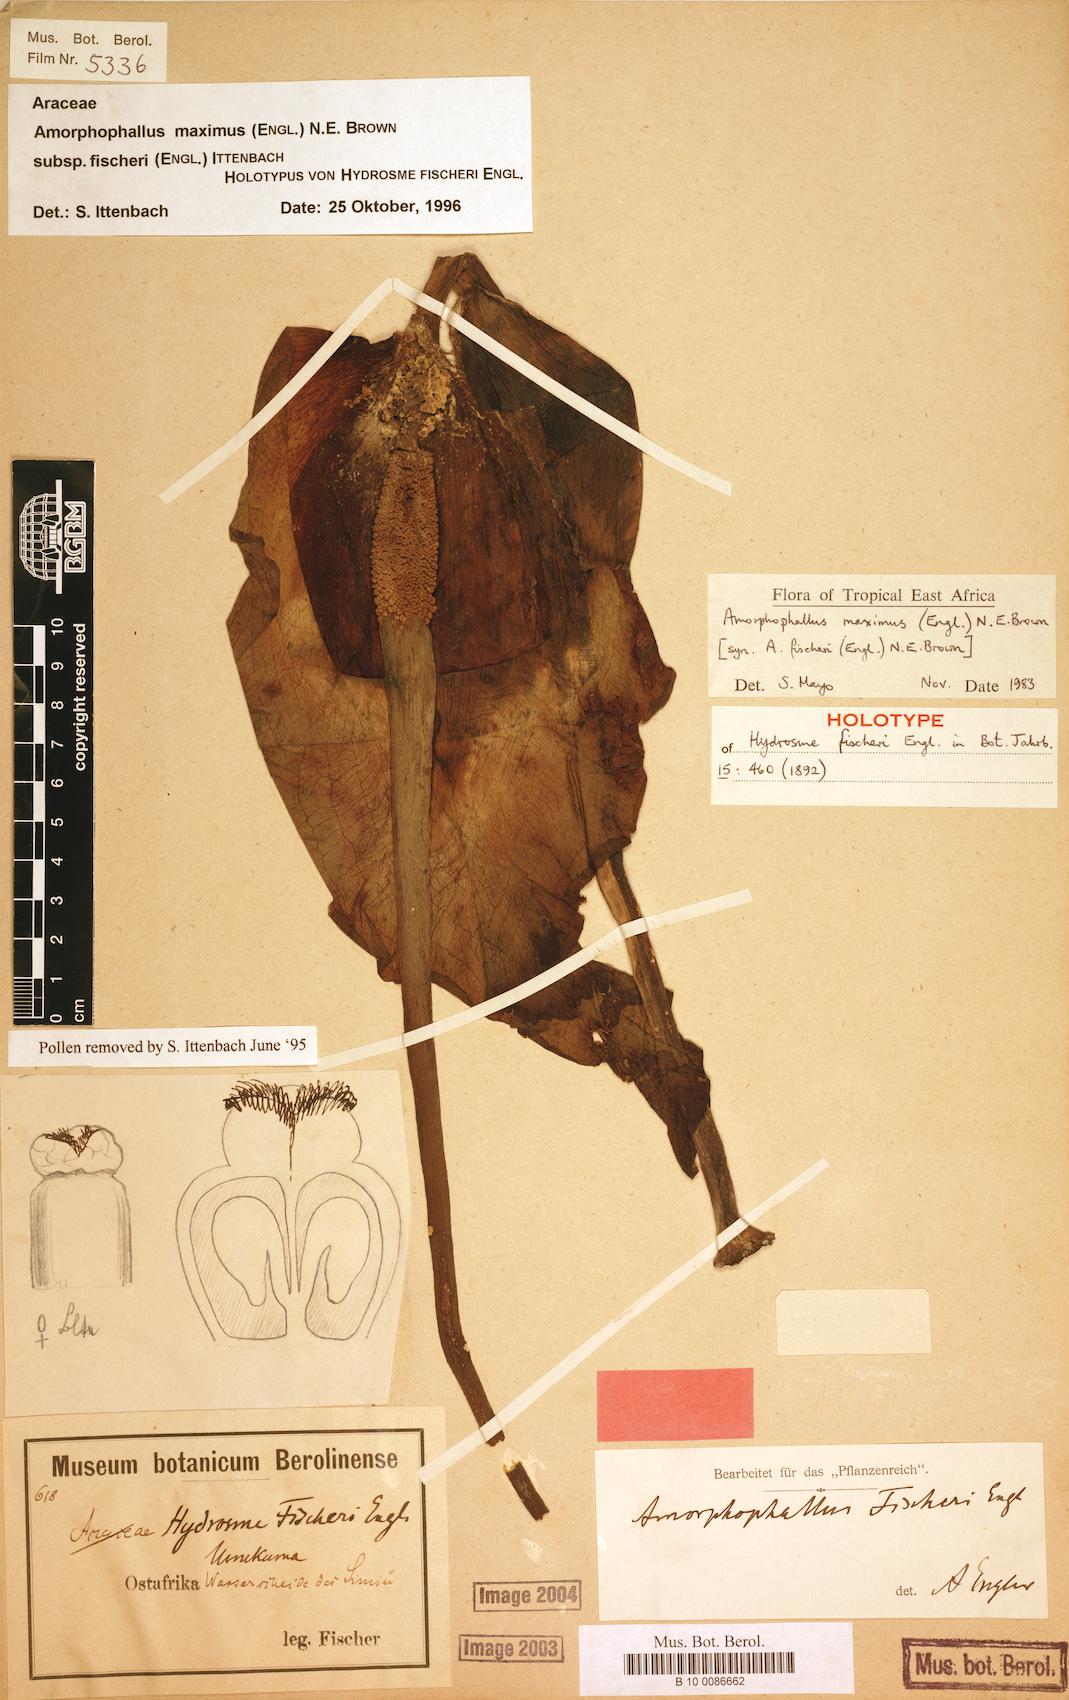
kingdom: Plantae
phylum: Tracheophyta
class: Liliopsida
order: Alismatales
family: Araceae
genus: Amorphophallus
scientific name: Amorphophallus maximus
